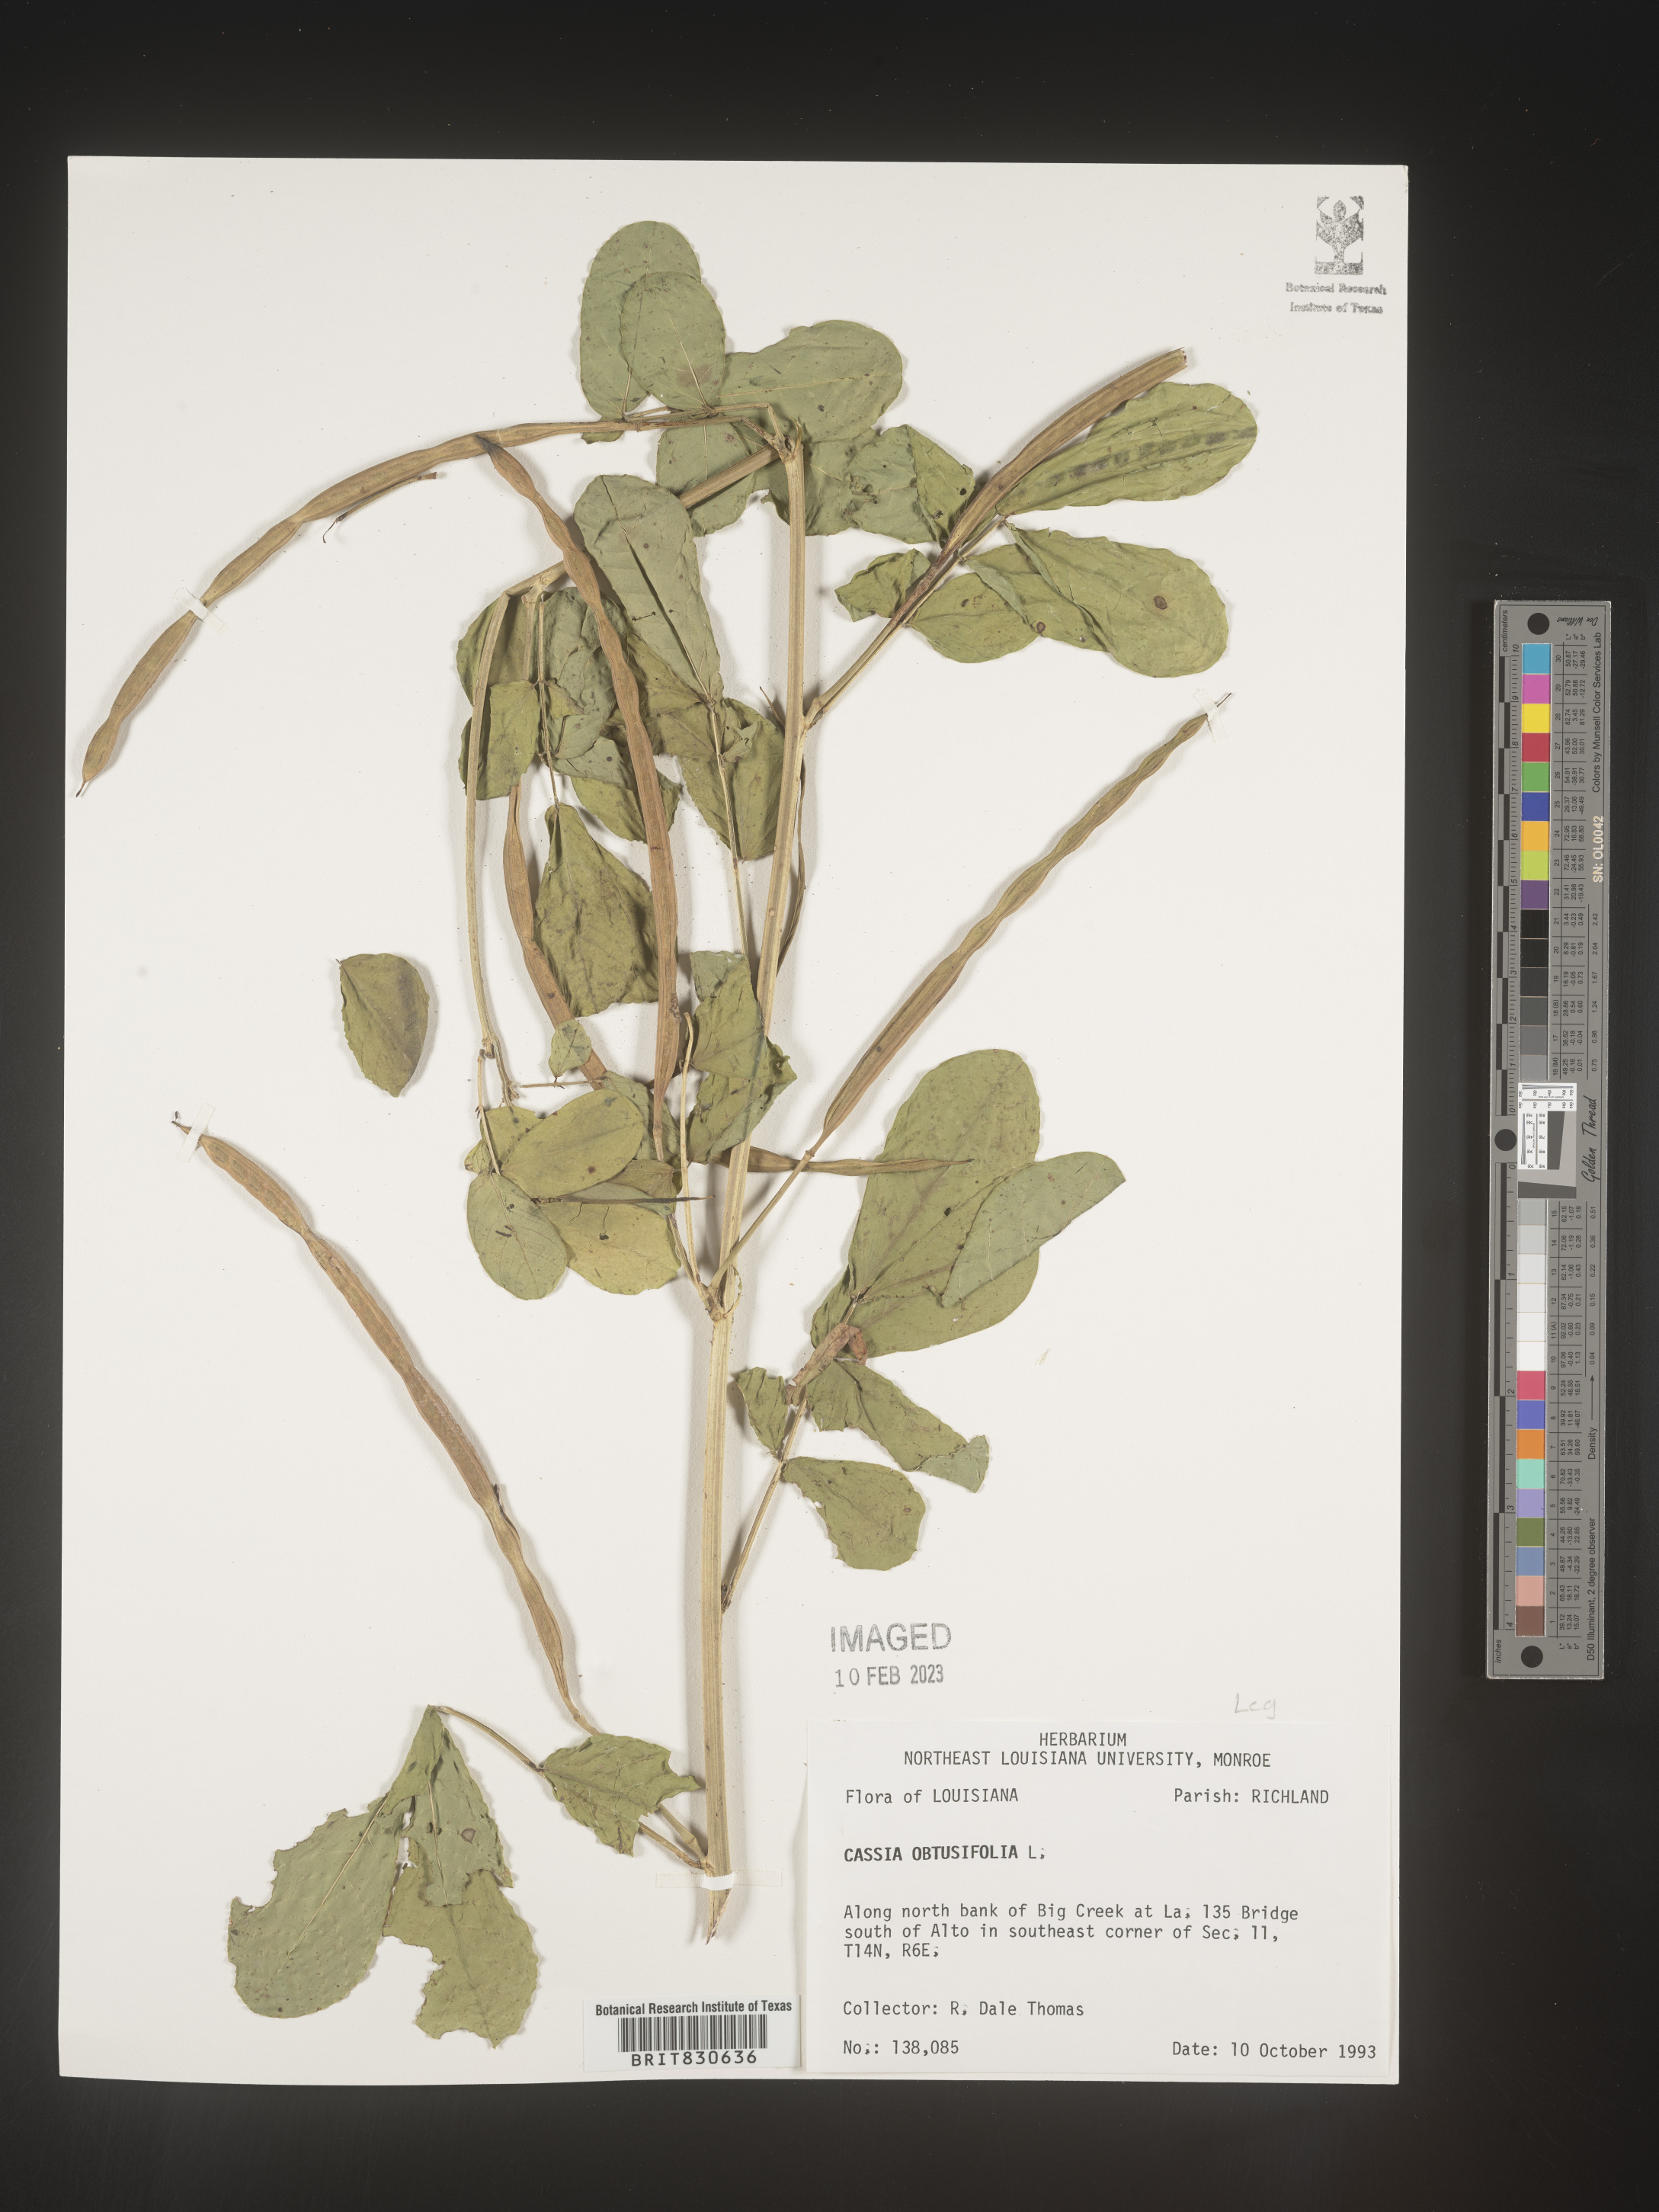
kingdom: Plantae
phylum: Tracheophyta
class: Magnoliopsida
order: Fabales
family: Fabaceae
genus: Senna
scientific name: Senna obtusifolia
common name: Java-bean
